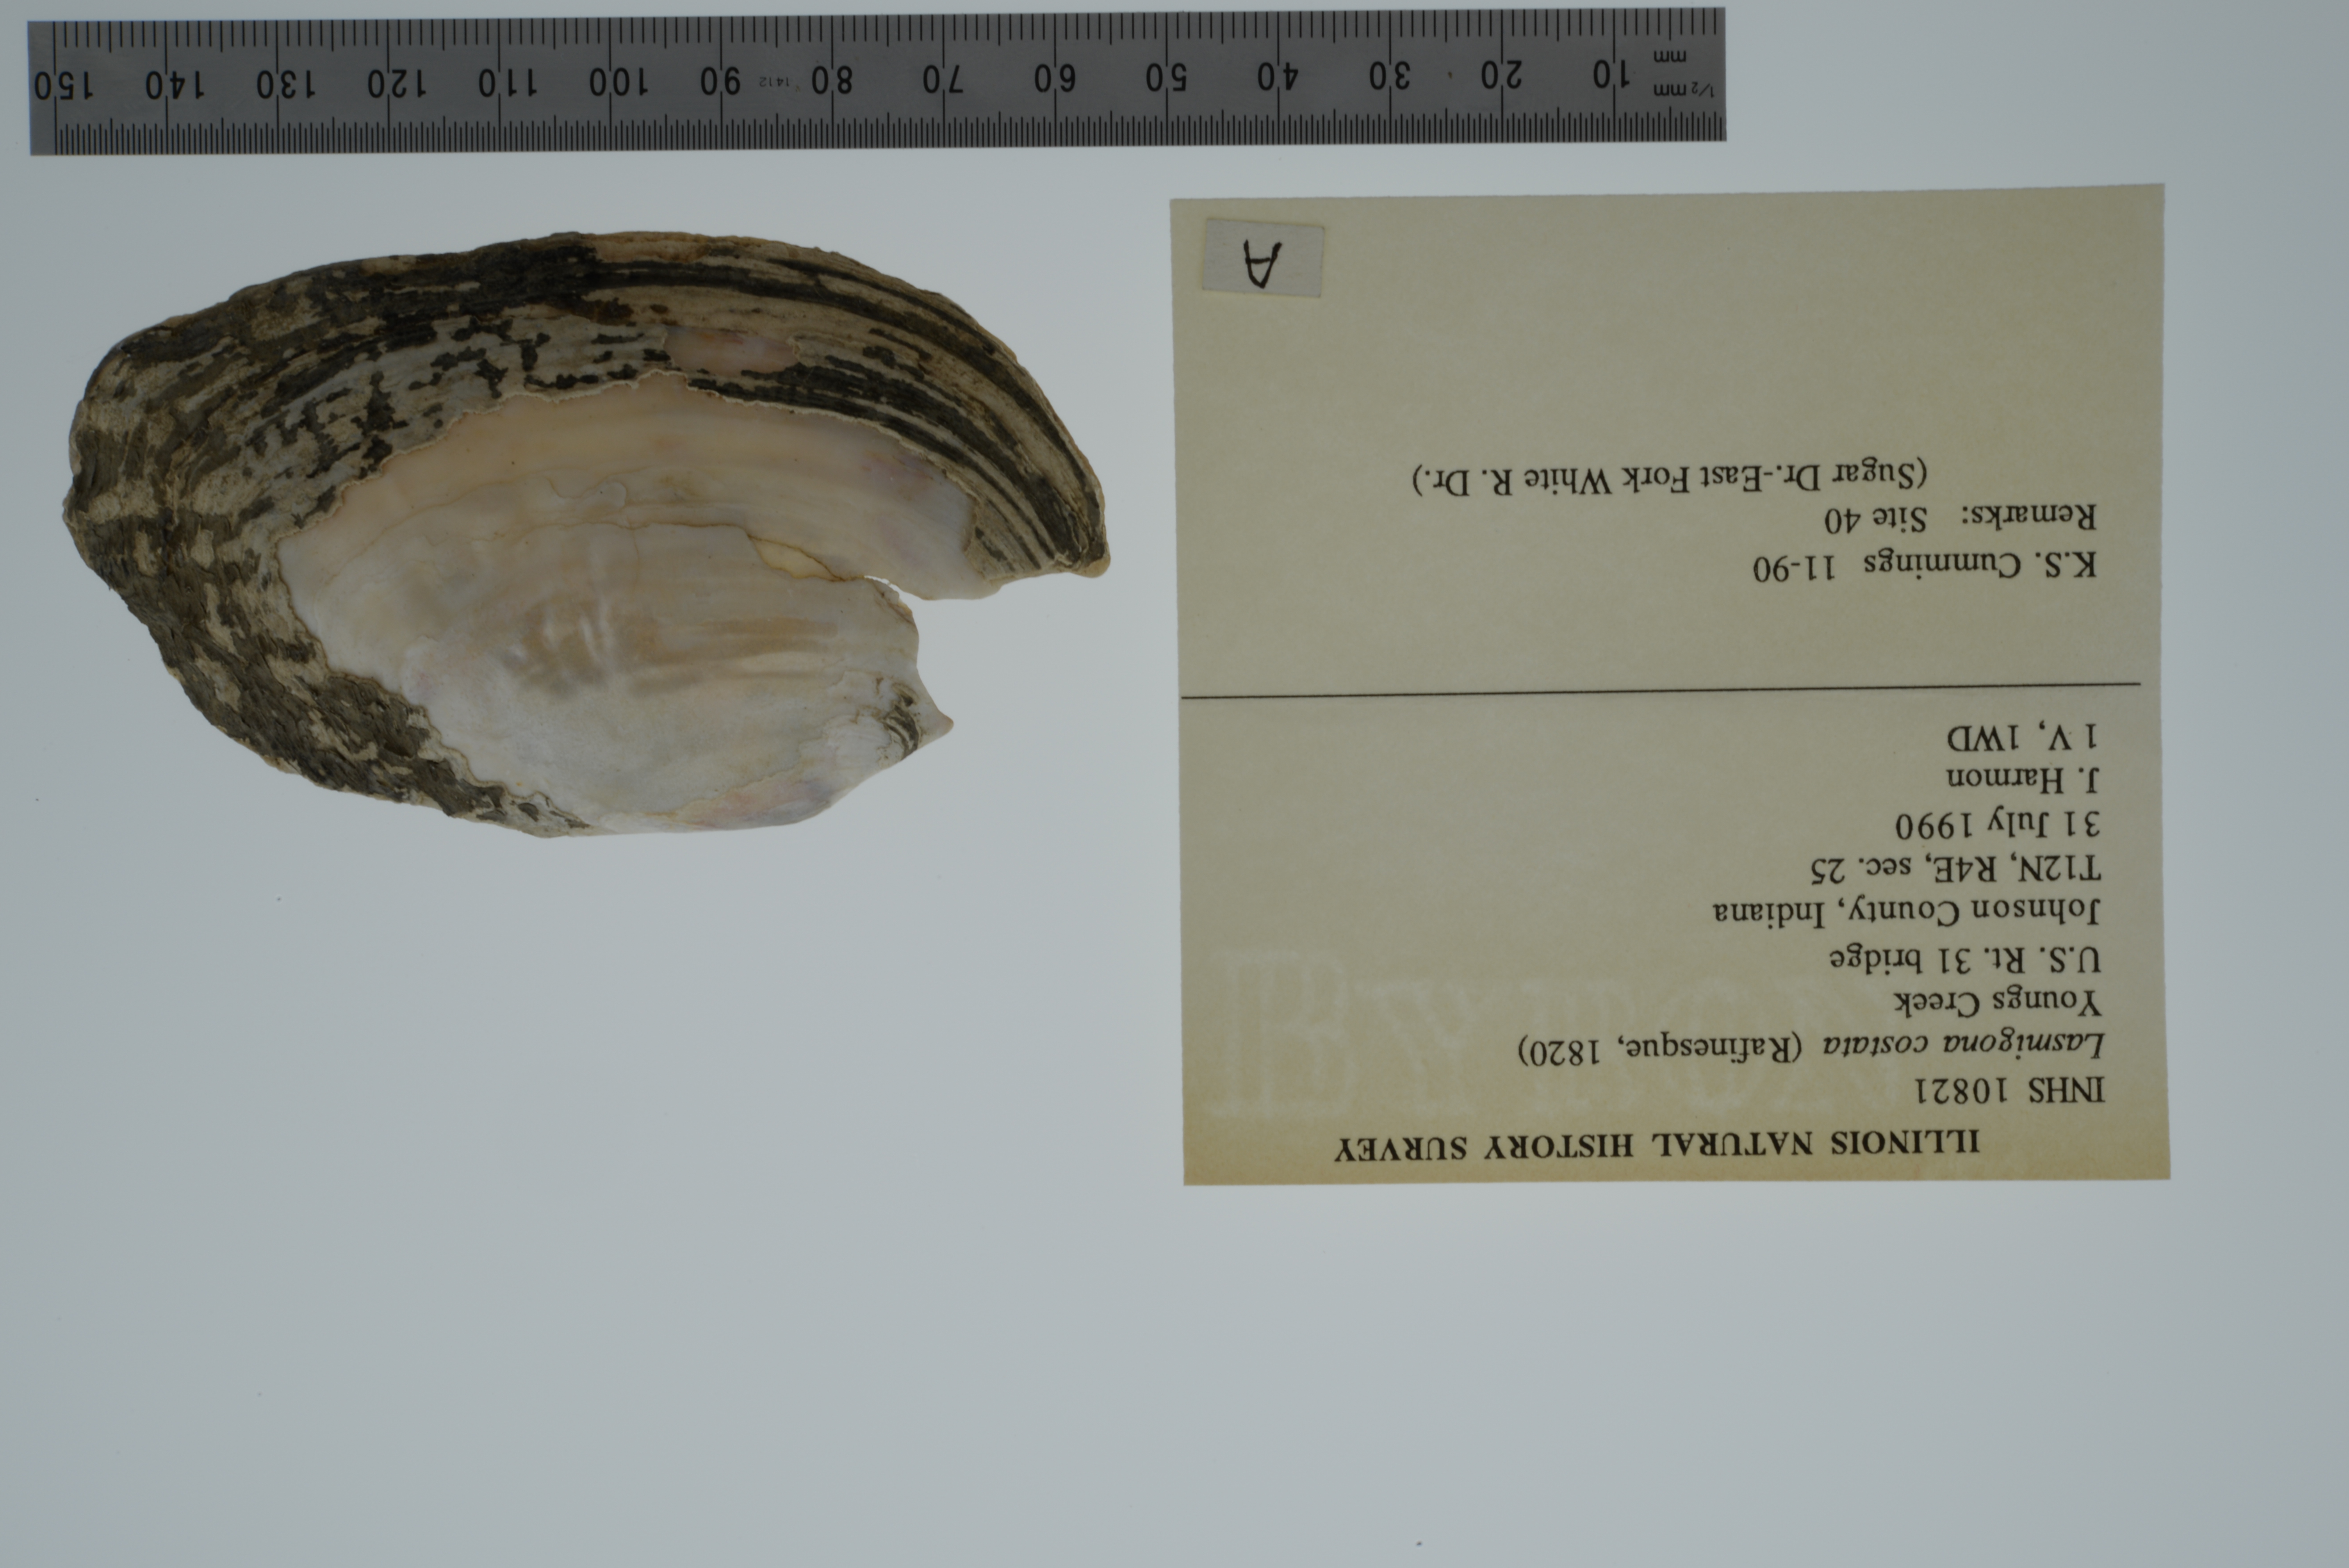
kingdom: Animalia
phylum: Mollusca
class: Bivalvia
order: Unionida
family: Unionidae
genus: Lasmigona
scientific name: Lasmigona costata
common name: Flutedshell
